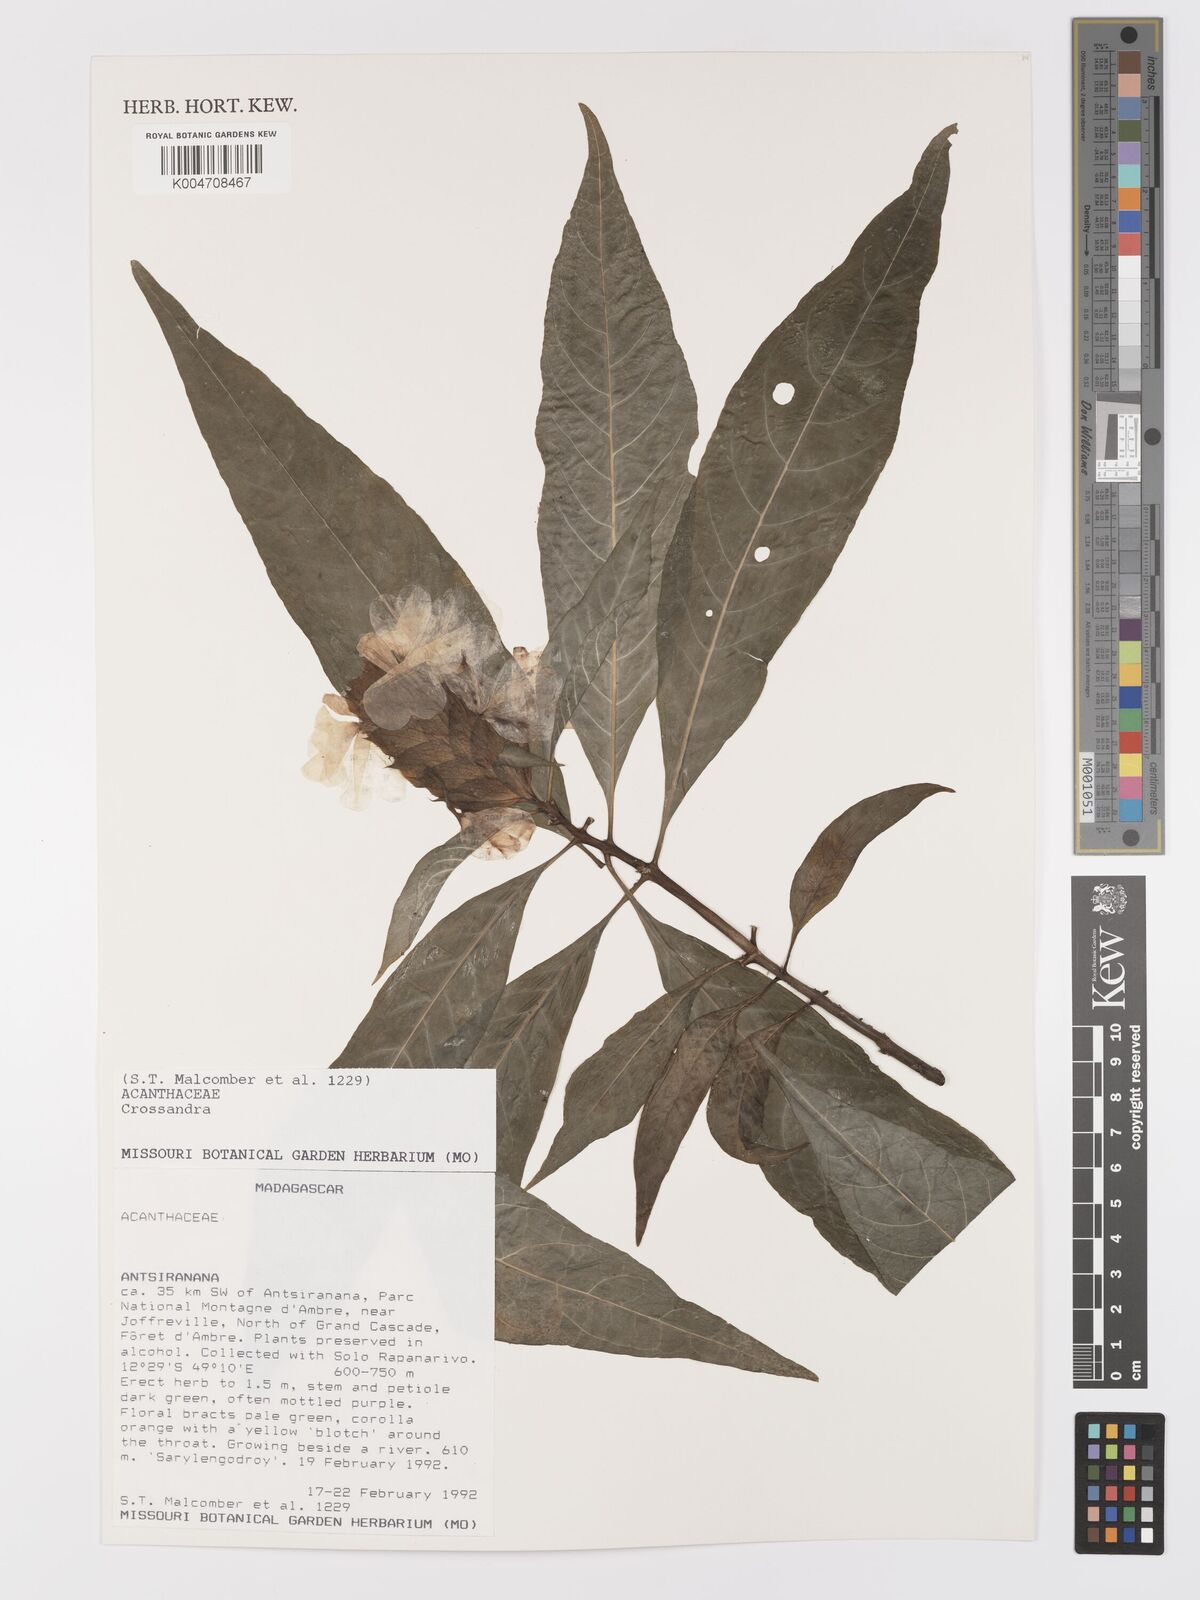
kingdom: Plantae
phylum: Tracheophyta
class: Magnoliopsida
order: Lamiales
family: Acanthaceae
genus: Crossandra
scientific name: Crossandra multidentata
